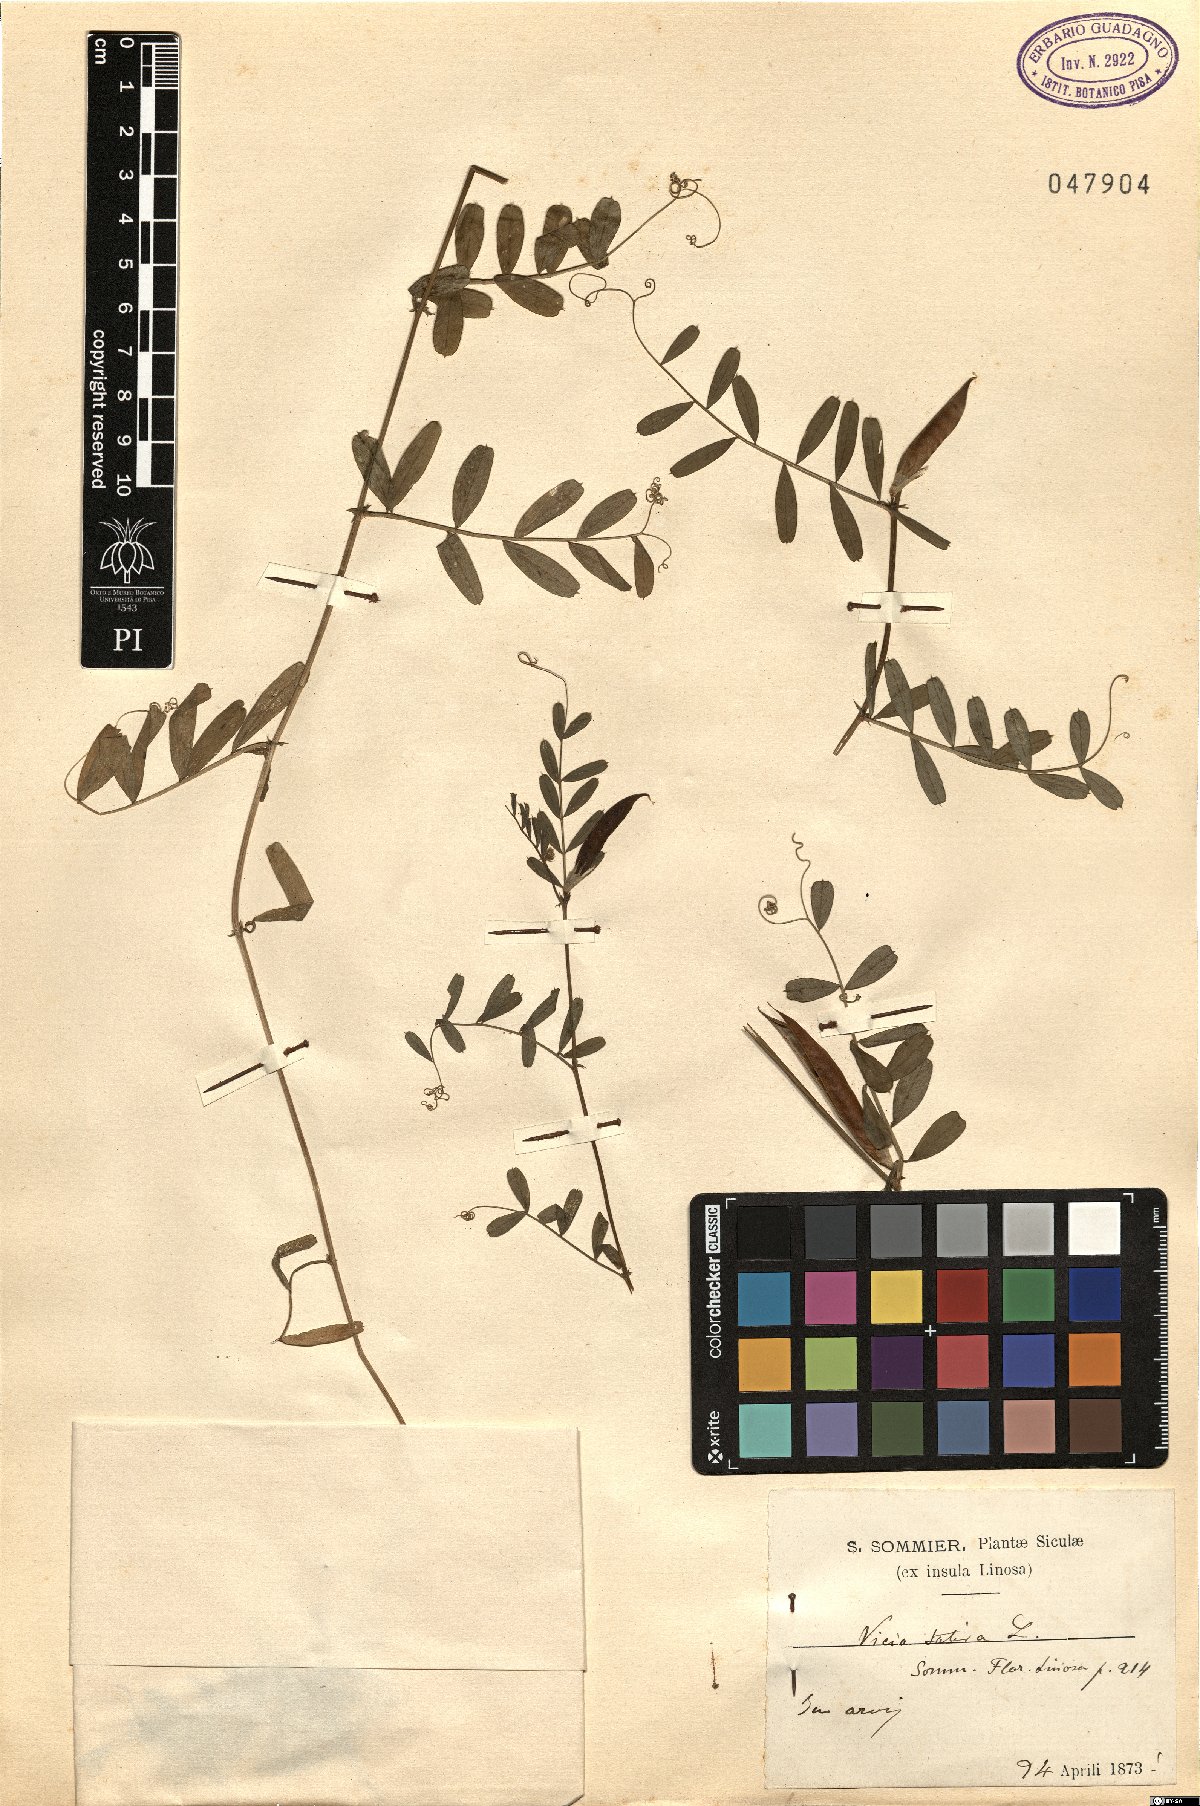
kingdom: Plantae
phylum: Tracheophyta
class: Magnoliopsida
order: Fabales
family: Fabaceae
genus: Vicia
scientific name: Vicia sativa
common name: Garden vetch
